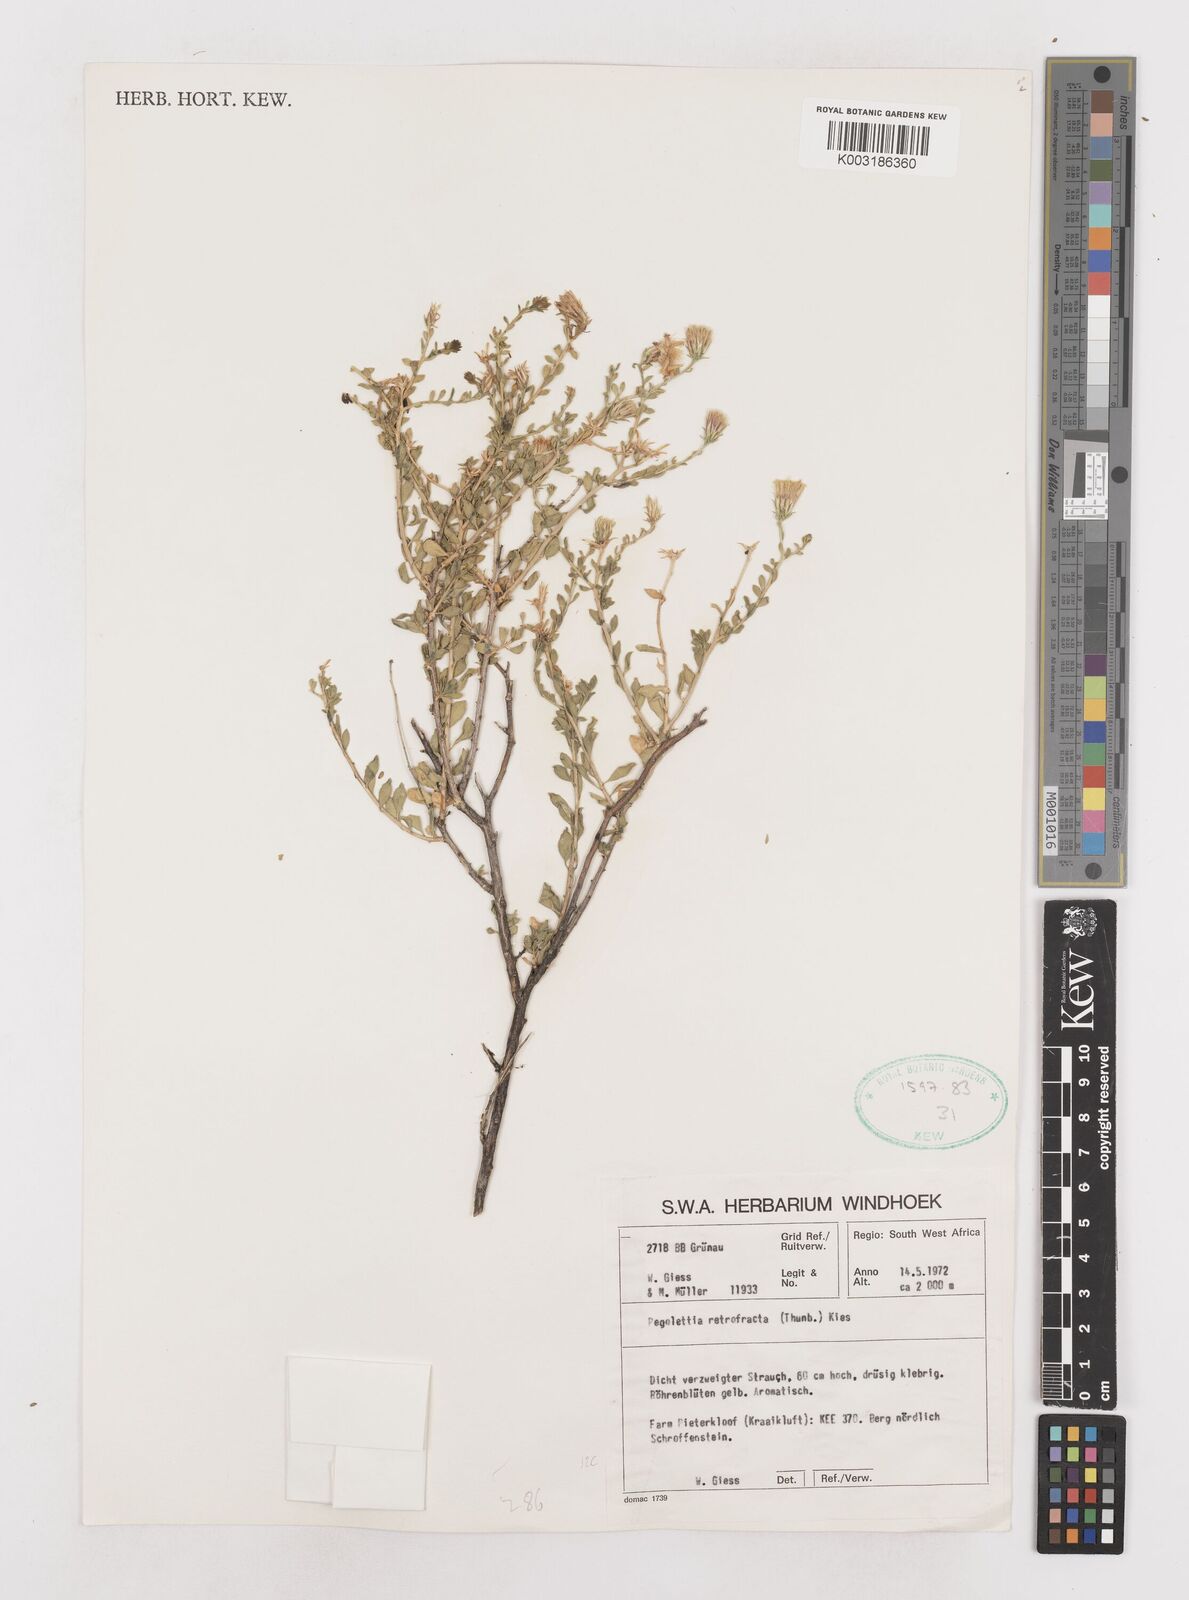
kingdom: Plantae
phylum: Tracheophyta
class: Magnoliopsida
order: Asterales
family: Asteraceae
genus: Pegolettia
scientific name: Pegolettia retrofracta
